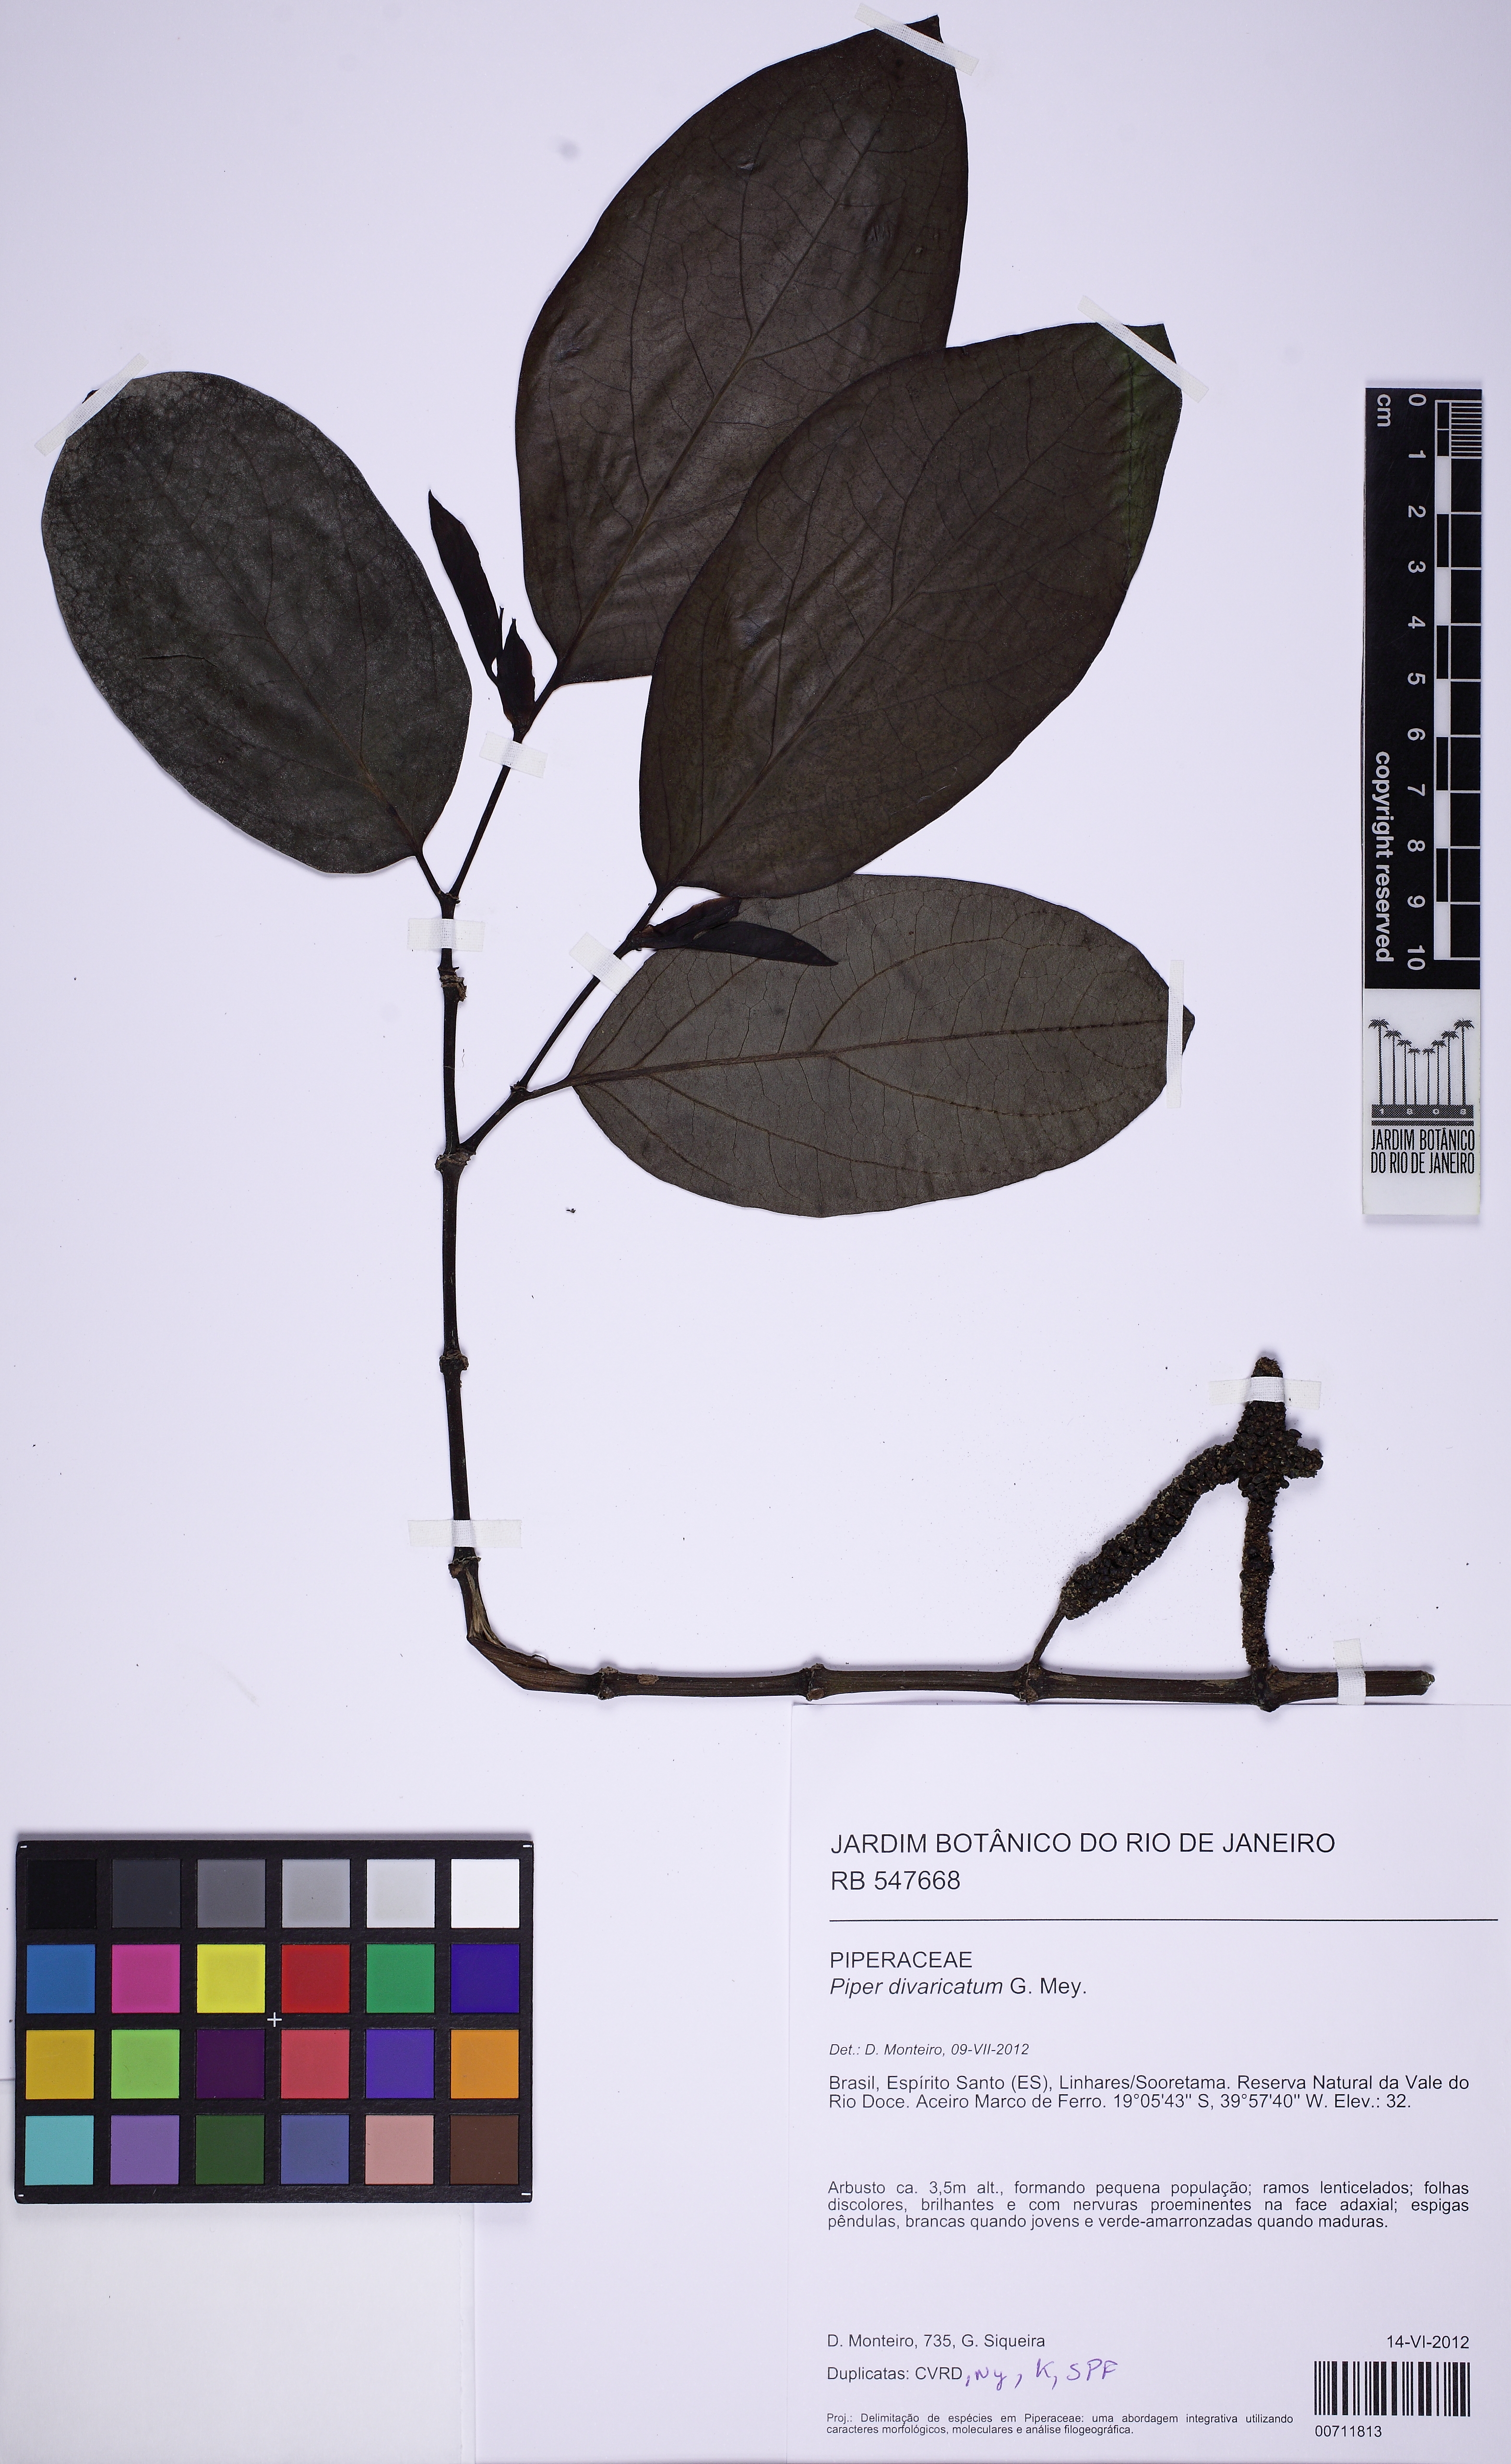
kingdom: Plantae
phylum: Tracheophyta
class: Magnoliopsida
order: Piperales
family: Piperaceae
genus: Piper
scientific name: Piper divaricatum
